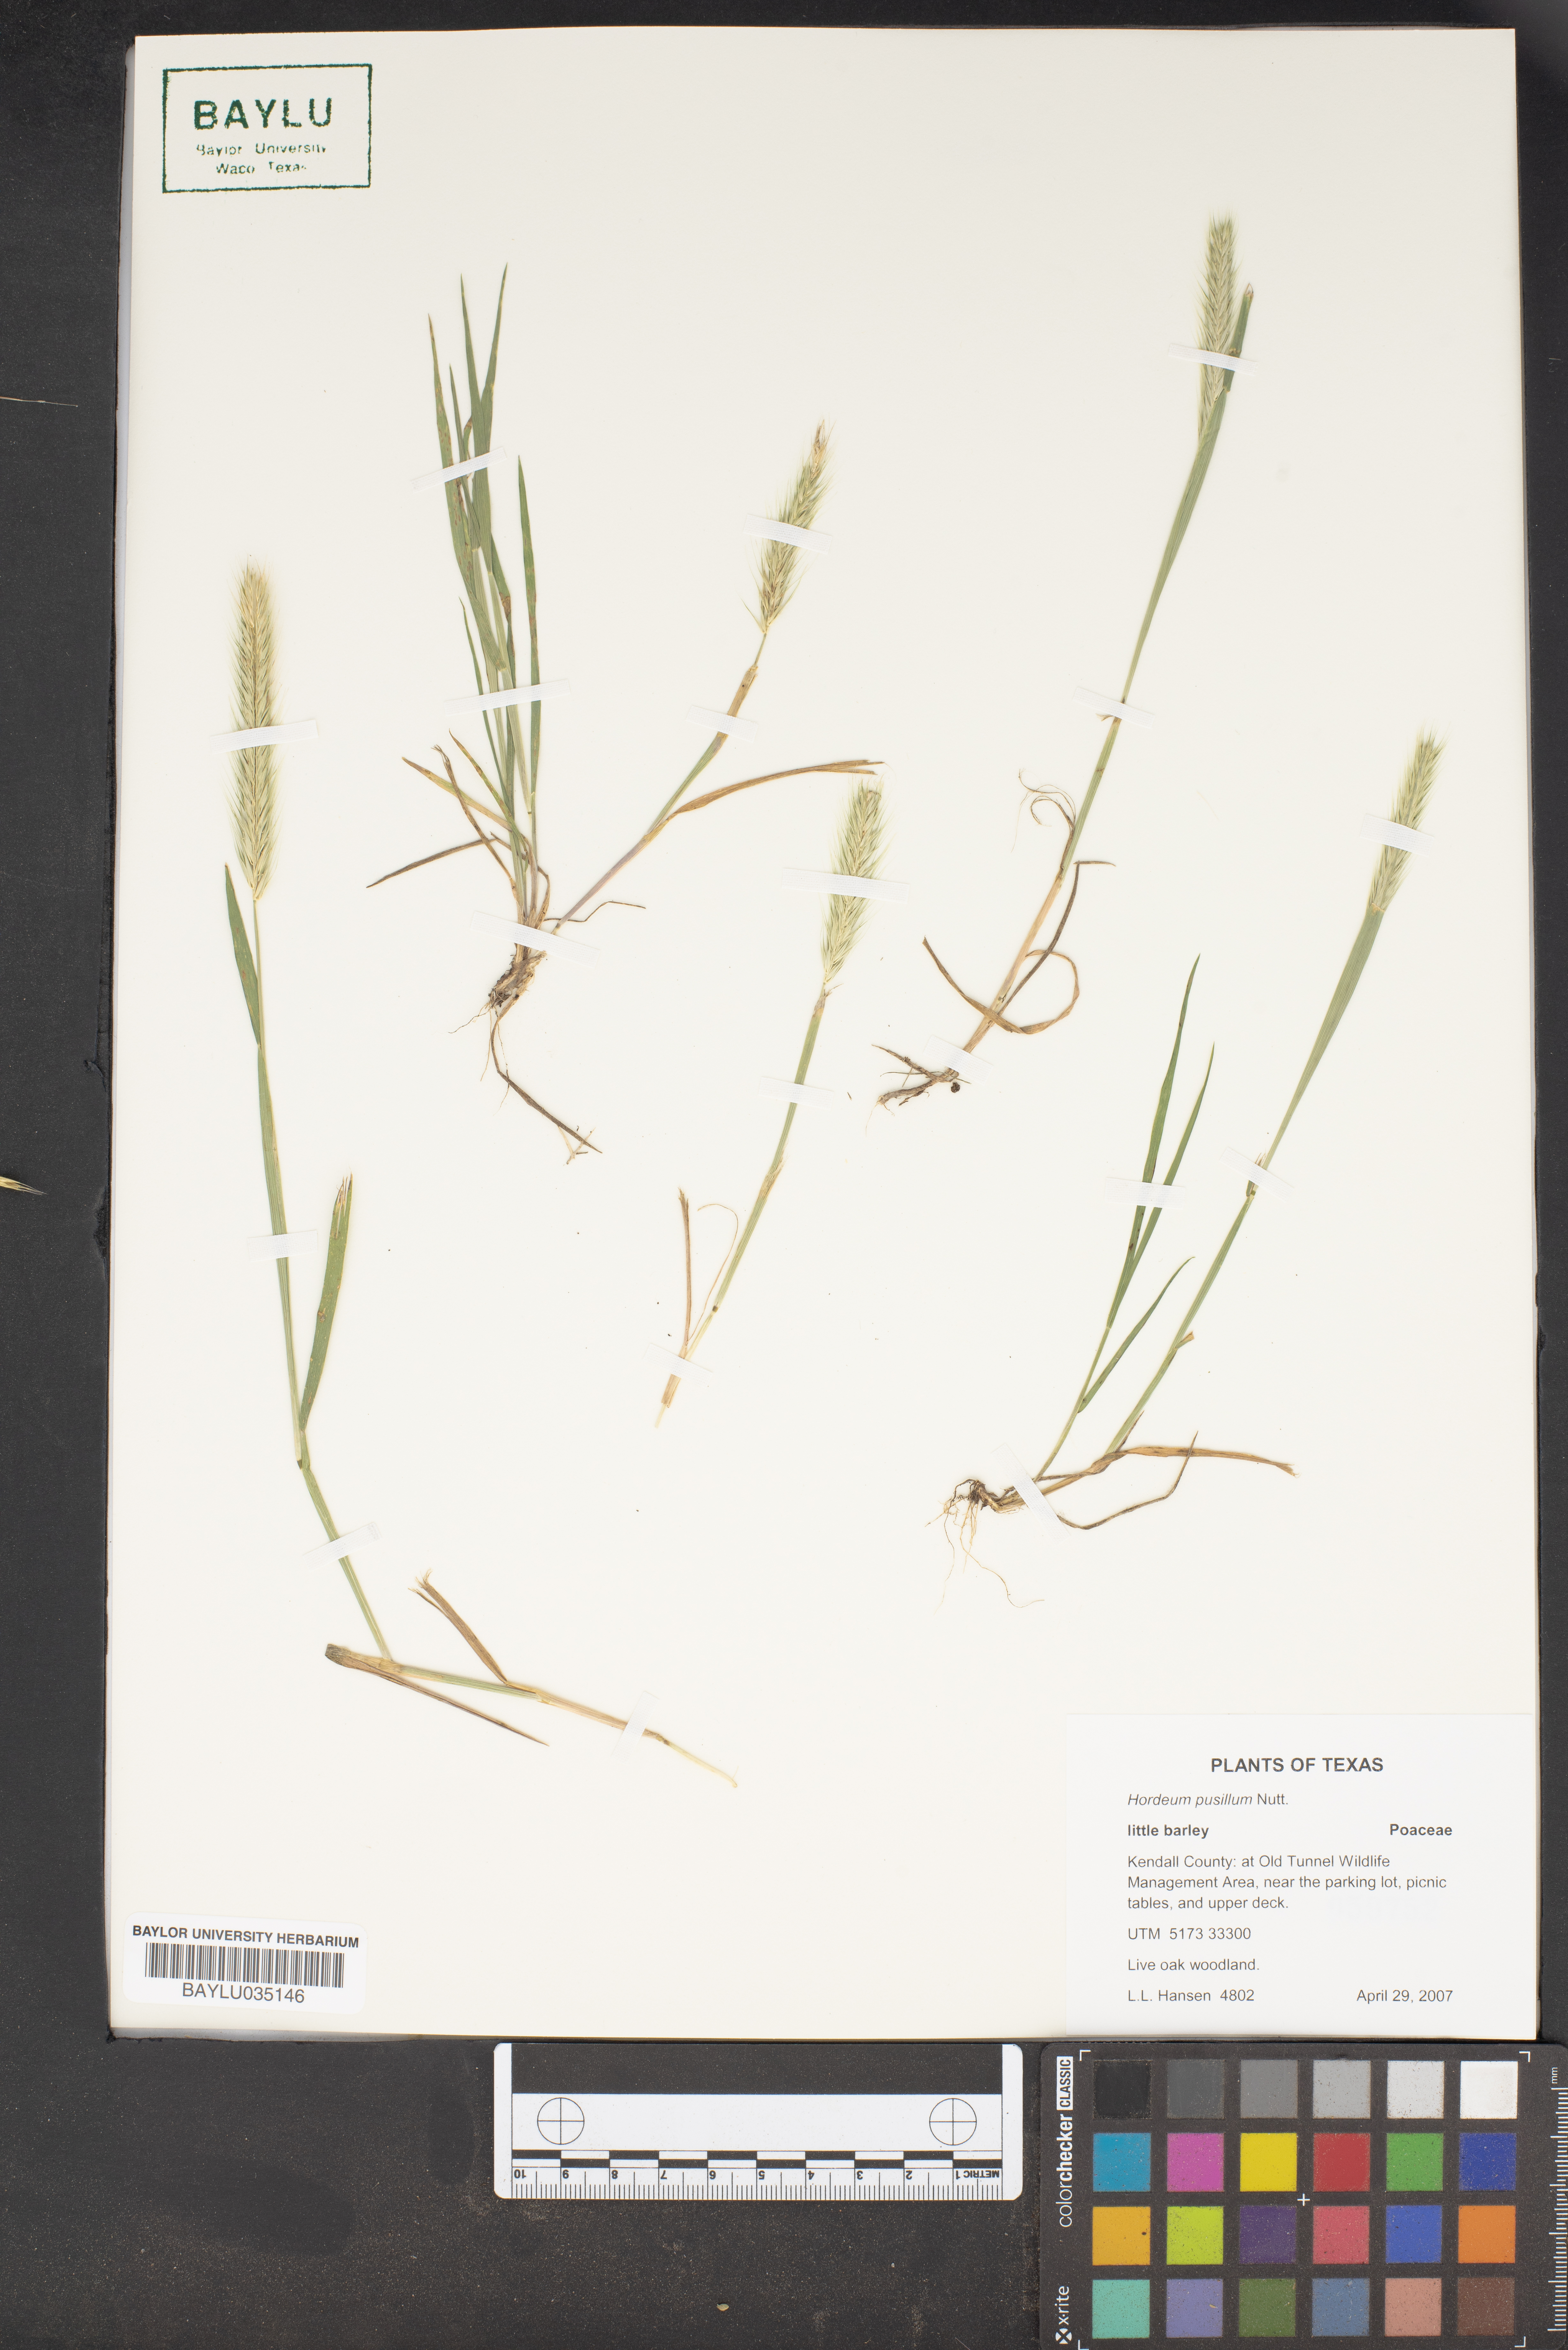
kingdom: Plantae
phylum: Tracheophyta
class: Liliopsida
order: Poales
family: Poaceae
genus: Hordeum
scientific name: Hordeum pusillum
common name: Little barley
